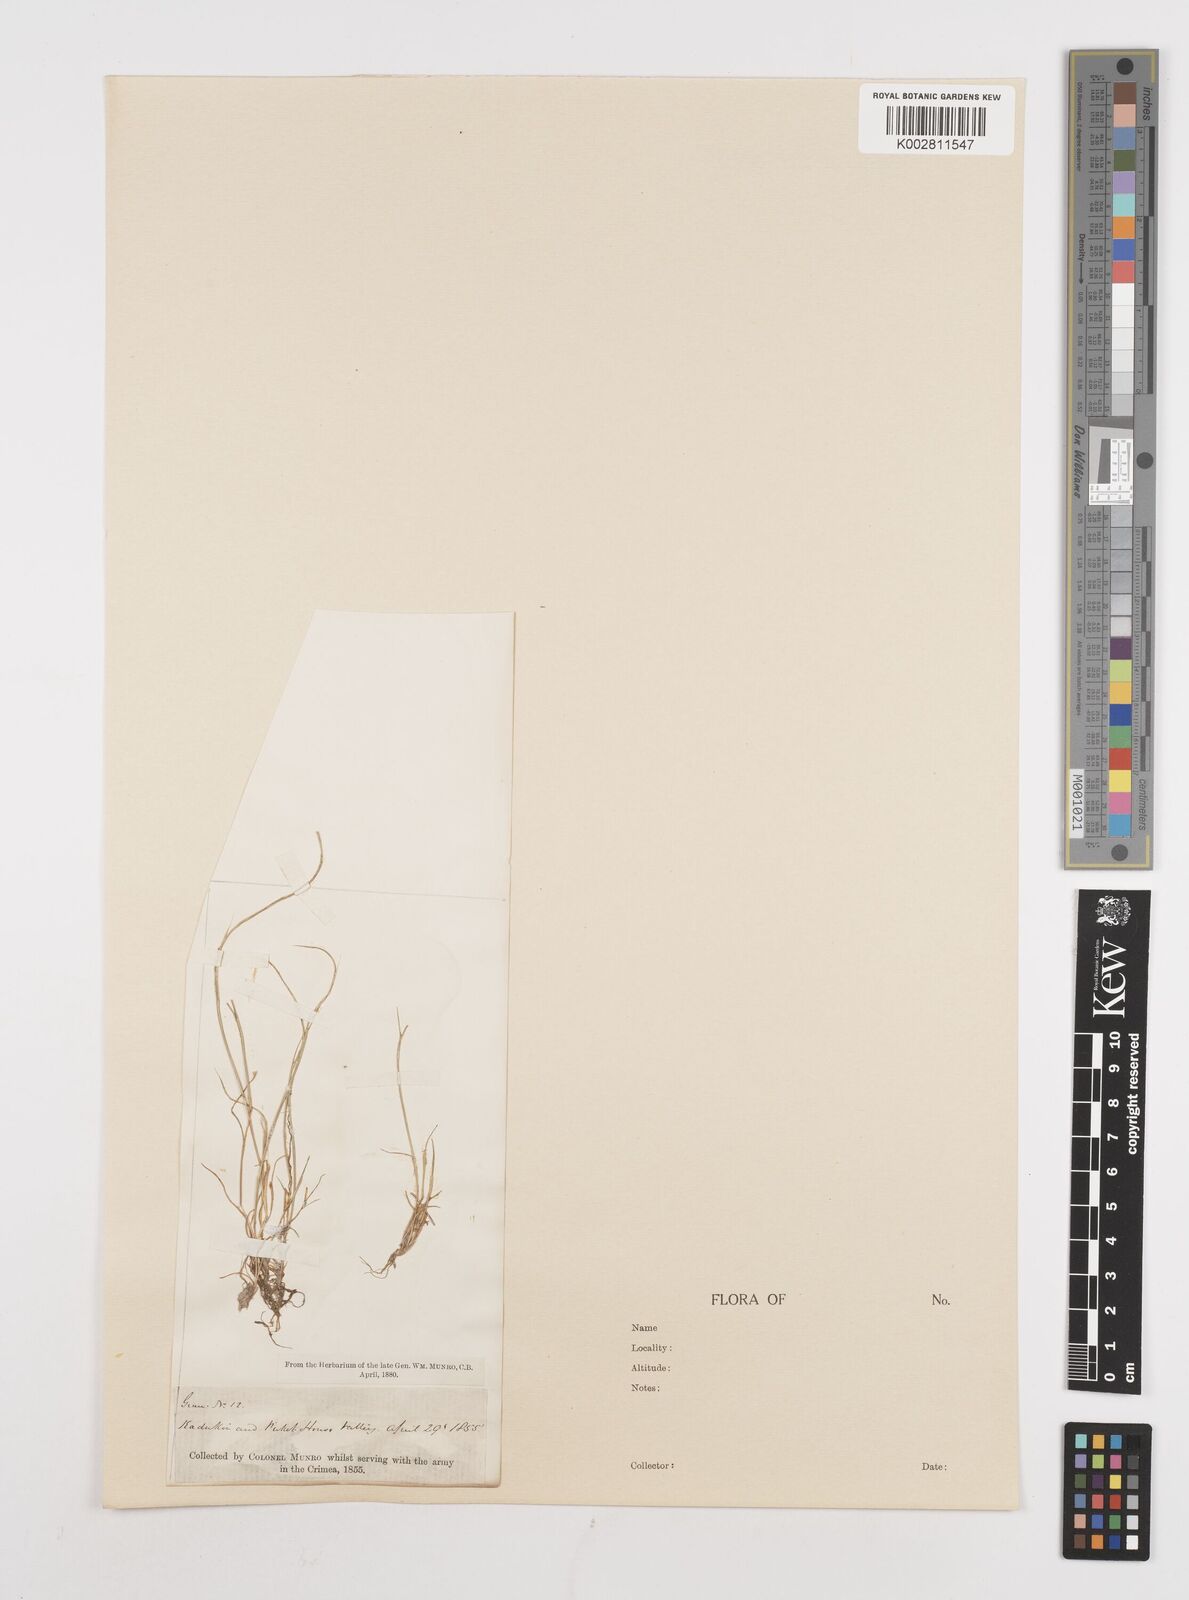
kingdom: Plantae
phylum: Tracheophyta
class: Liliopsida
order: Poales
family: Poaceae
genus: Festuca
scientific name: Festuca incurva
